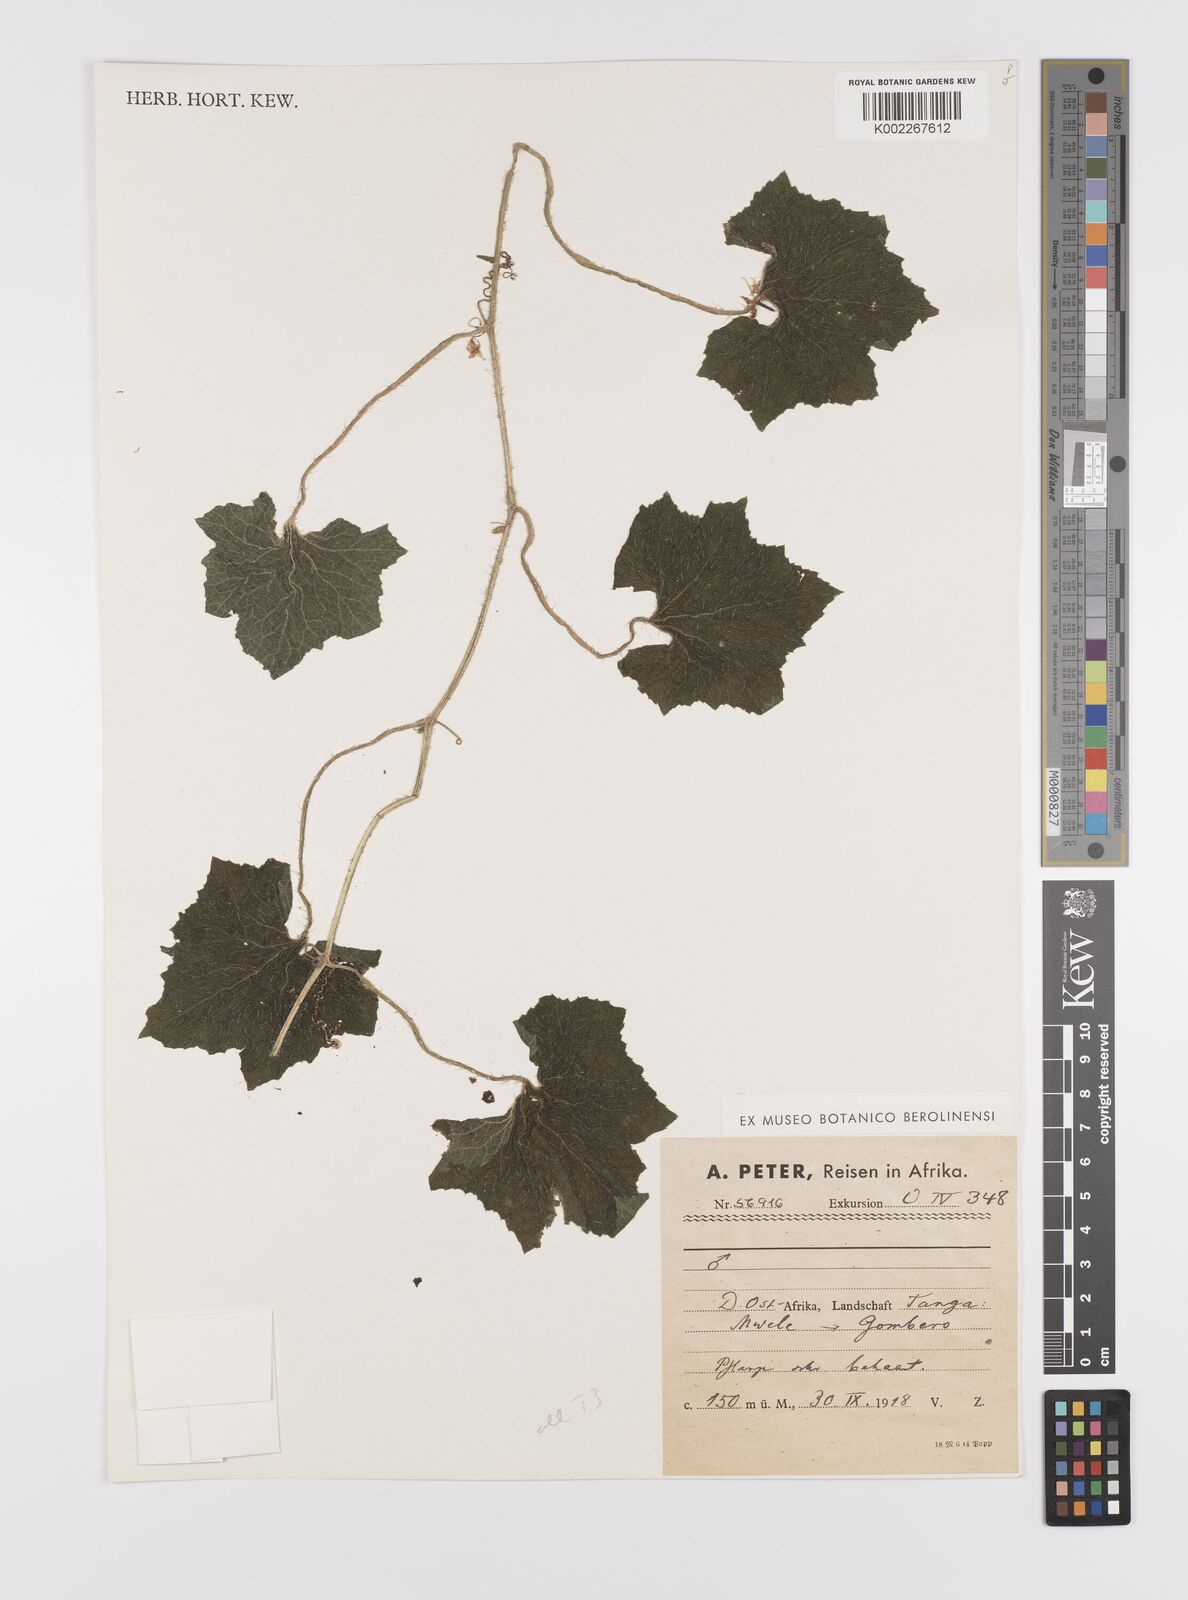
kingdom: Plantae
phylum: Tracheophyta
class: Magnoliopsida
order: Cucurbitales
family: Cucurbitaceae
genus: Cucumis
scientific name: Cucumis sacleuxii
